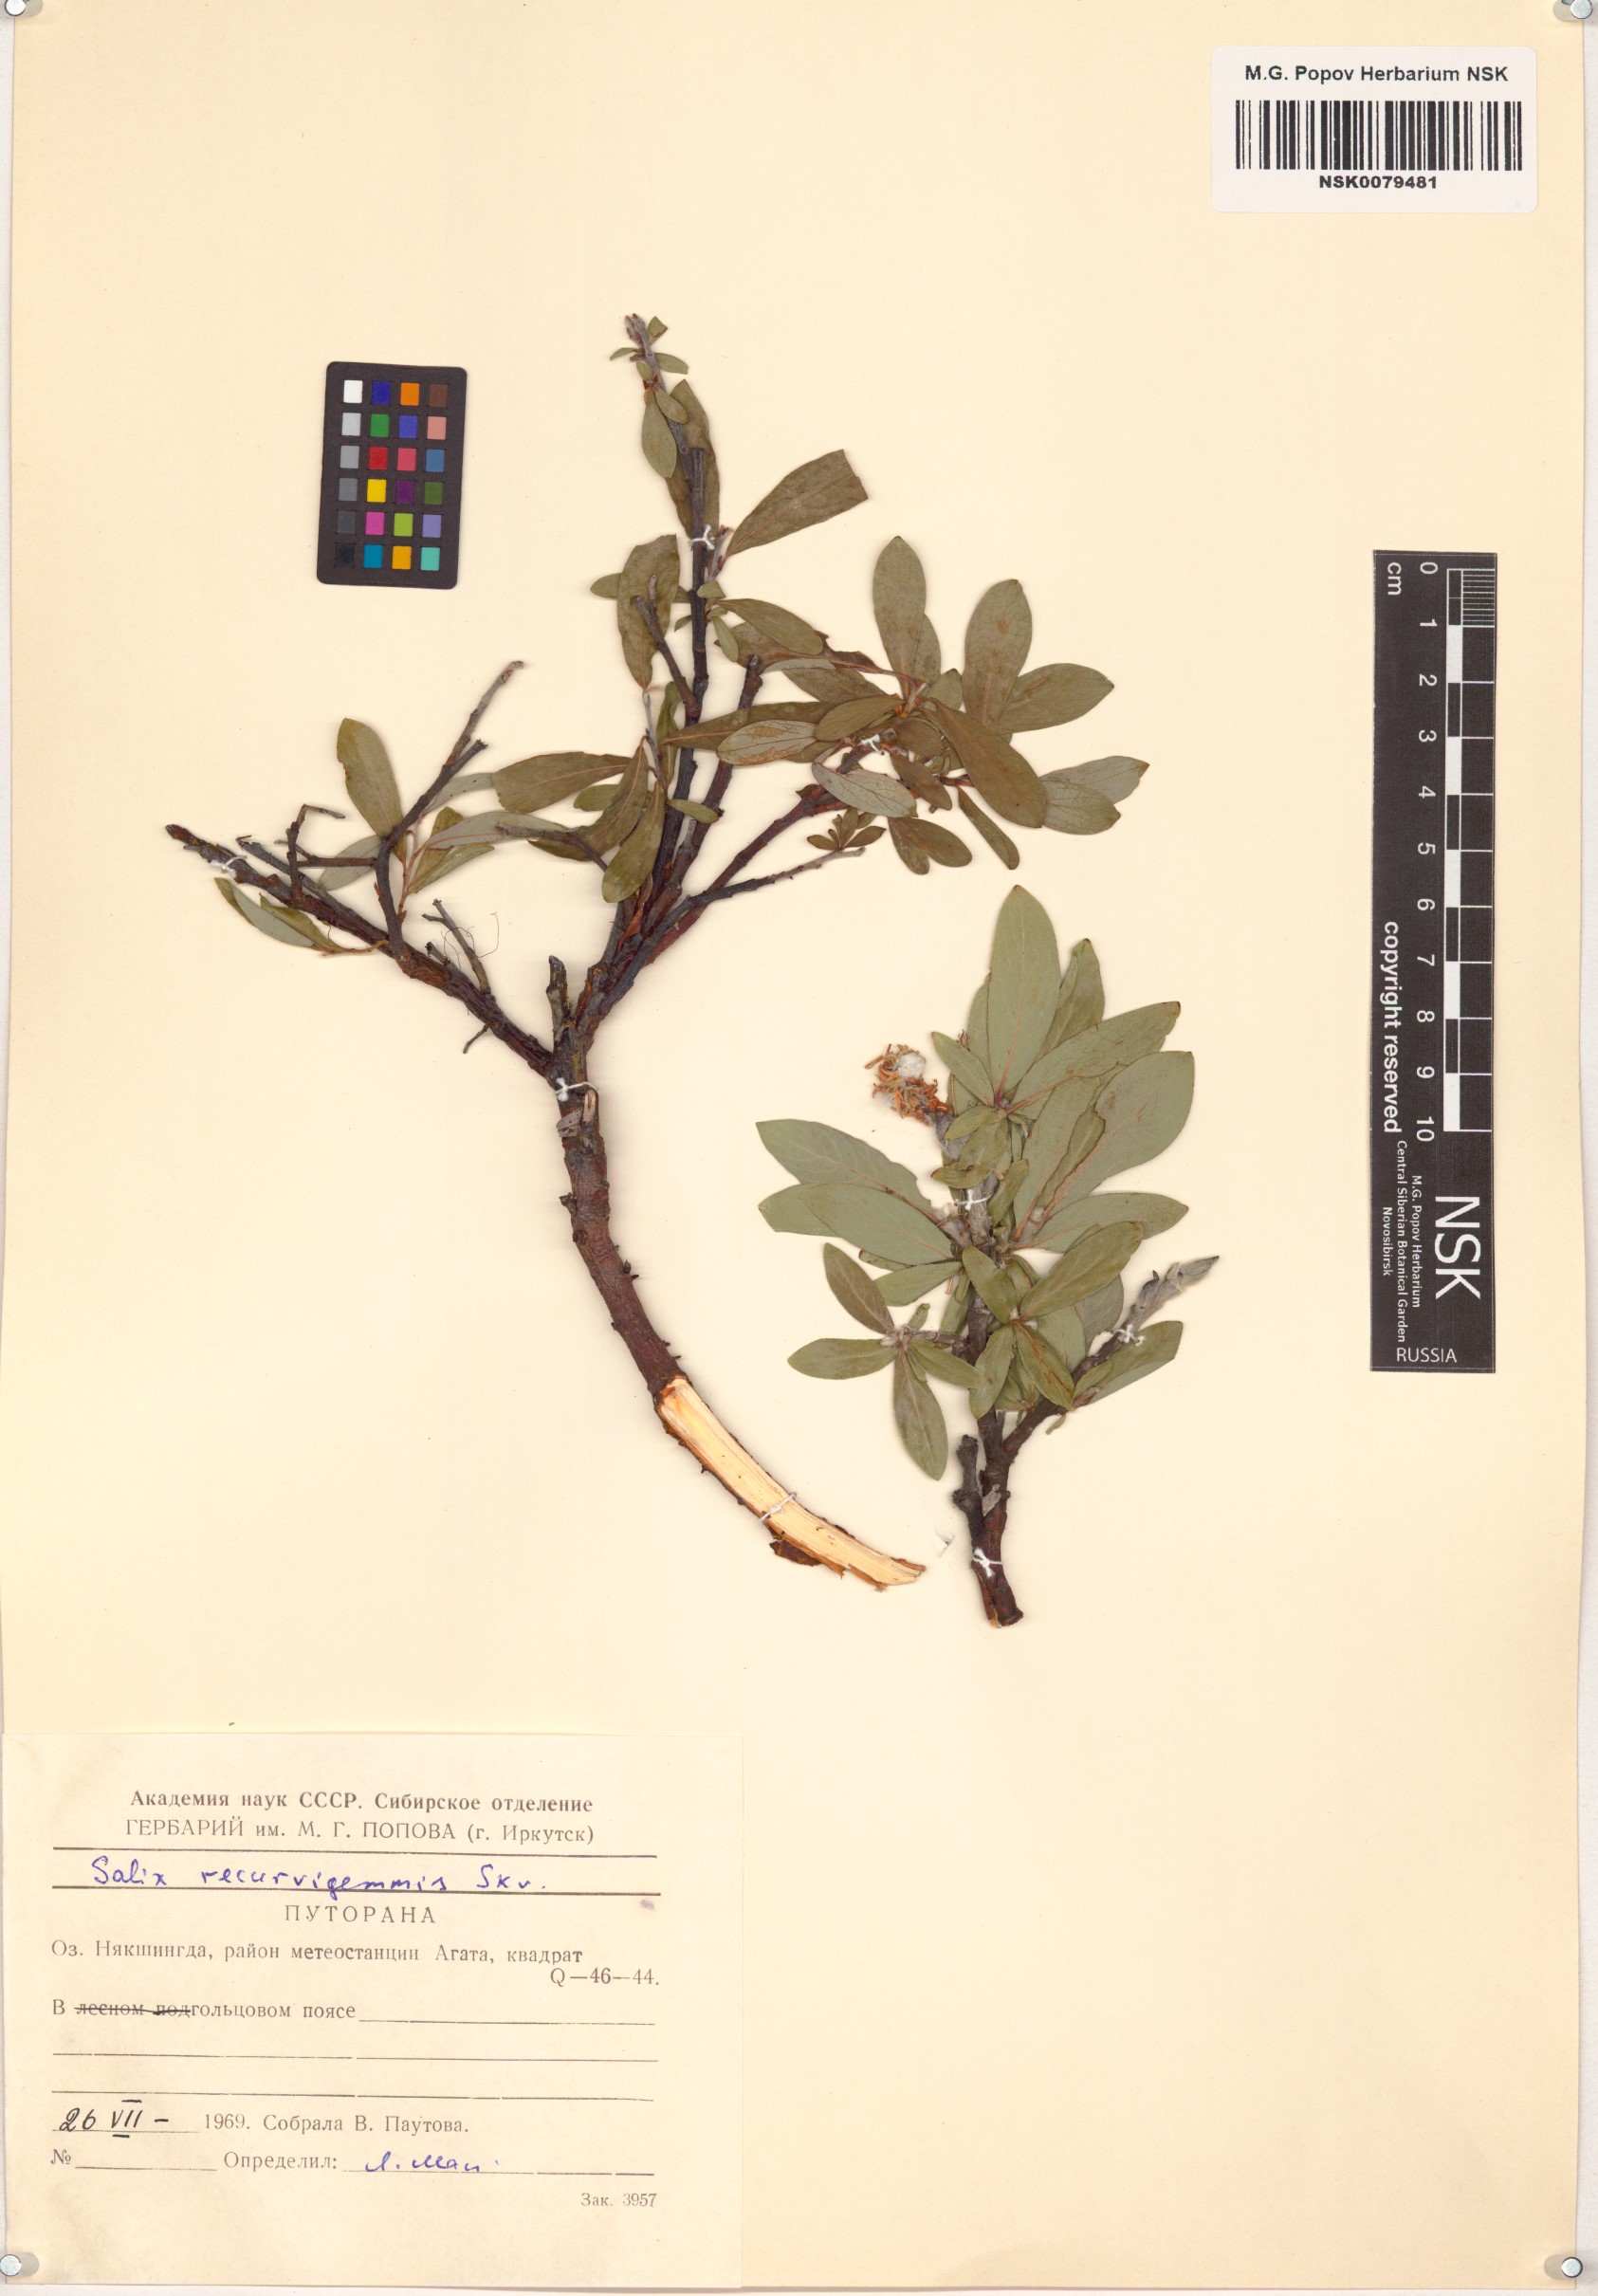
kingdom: Plantae
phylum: Tracheophyta
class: Magnoliopsida
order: Malpighiales
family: Salicaceae
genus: Salix
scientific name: Salix recurvigemmata
